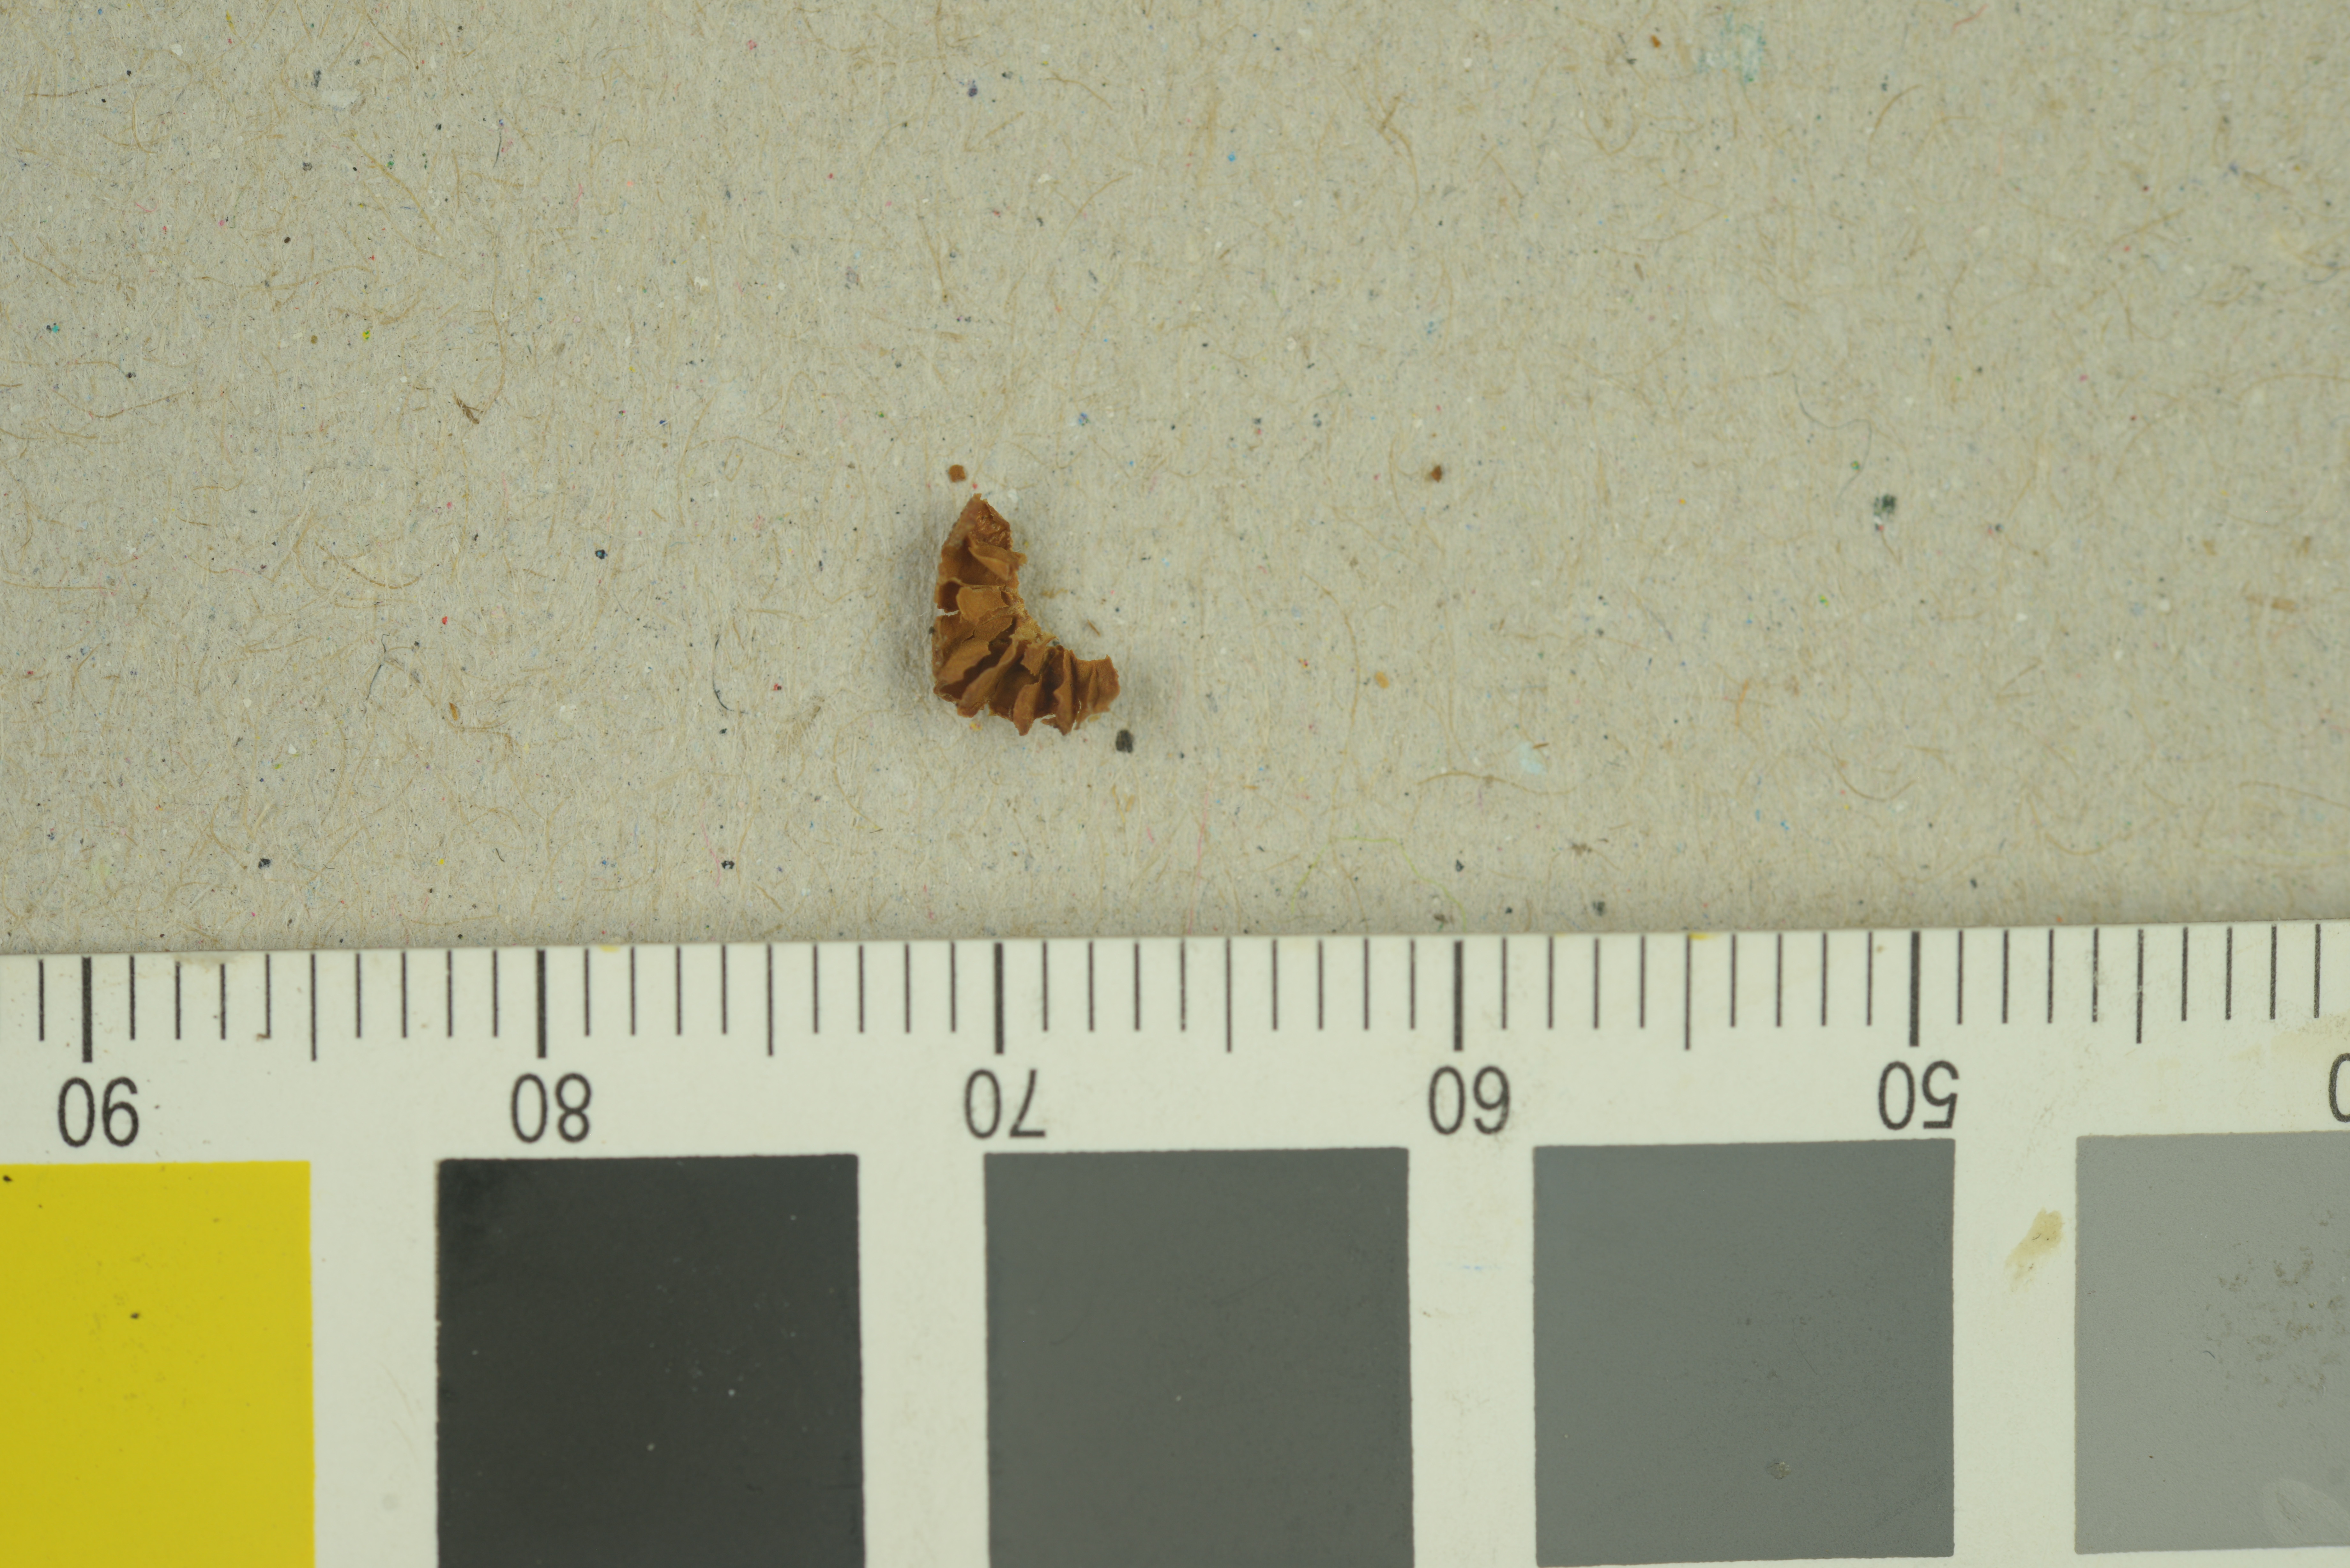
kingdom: Fungi
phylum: Basidiomycota
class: Agaricomycetes
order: Agaricales
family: Hymenogastraceae
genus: Galerina
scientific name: Galerina vittiformis
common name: Hairy leg bell
